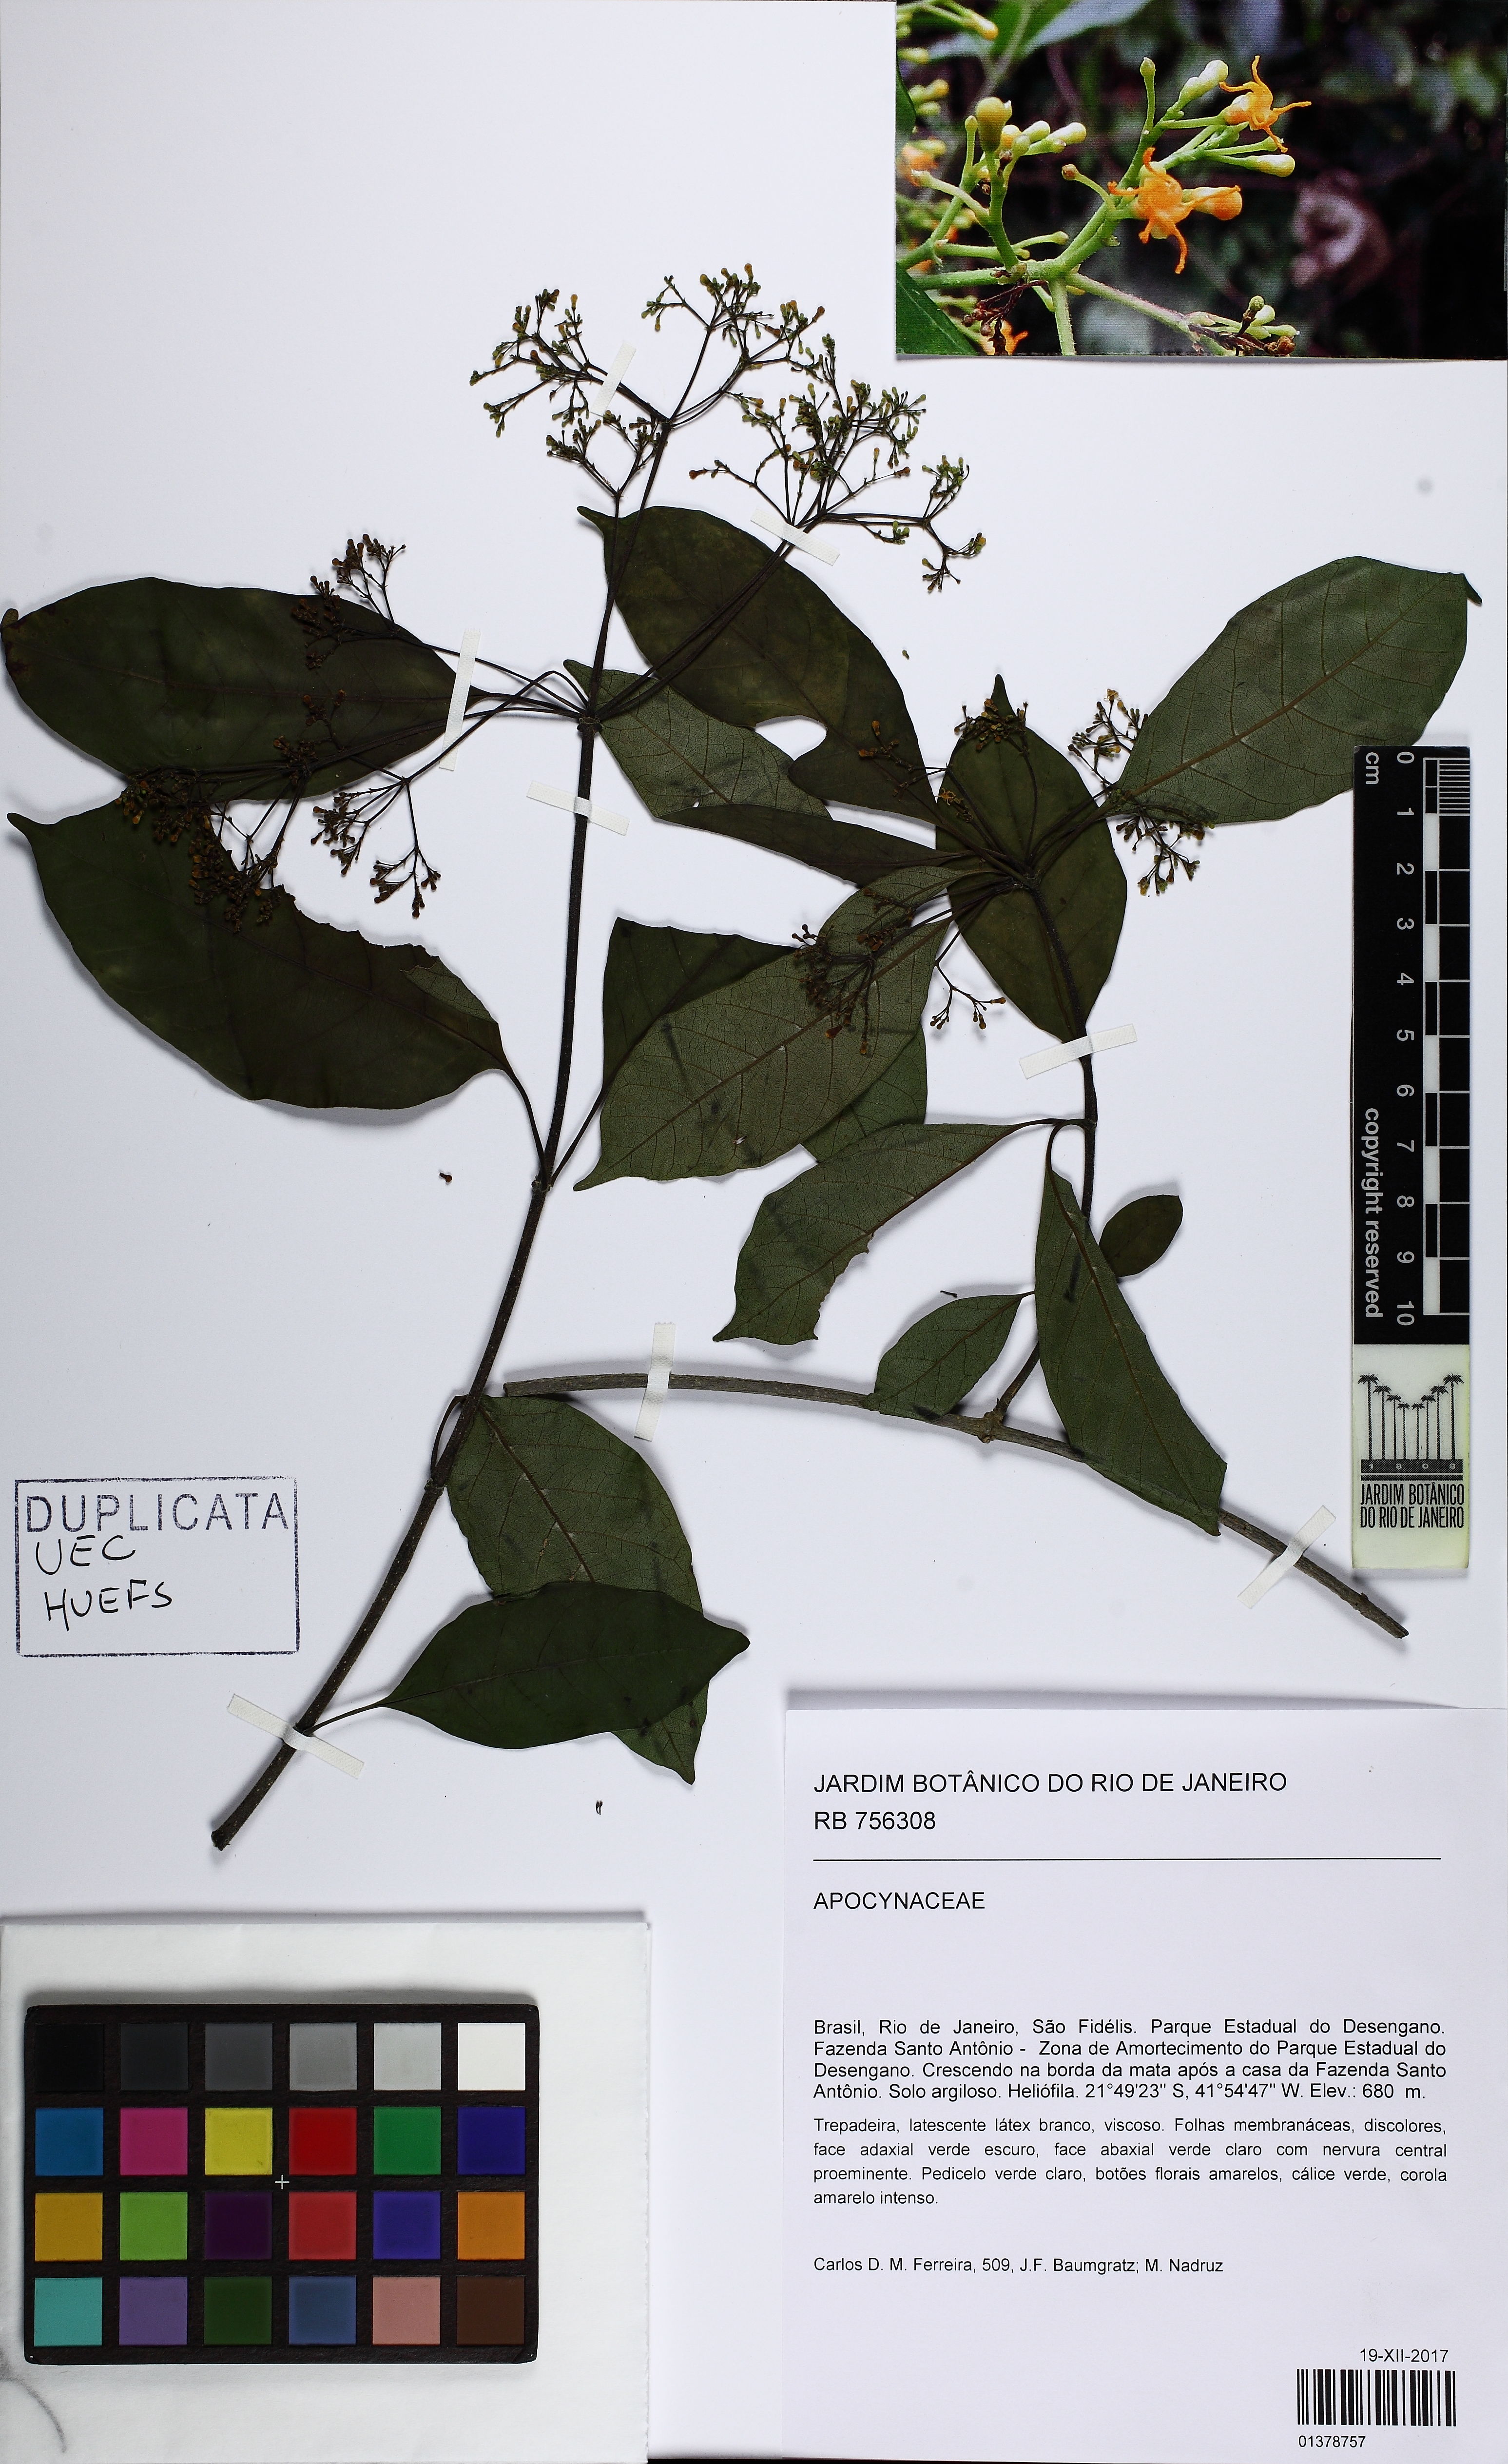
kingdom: Plantae
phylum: Tracheophyta
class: Magnoliopsida
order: Gentianales
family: Apocynaceae
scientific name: Apocynaceae
